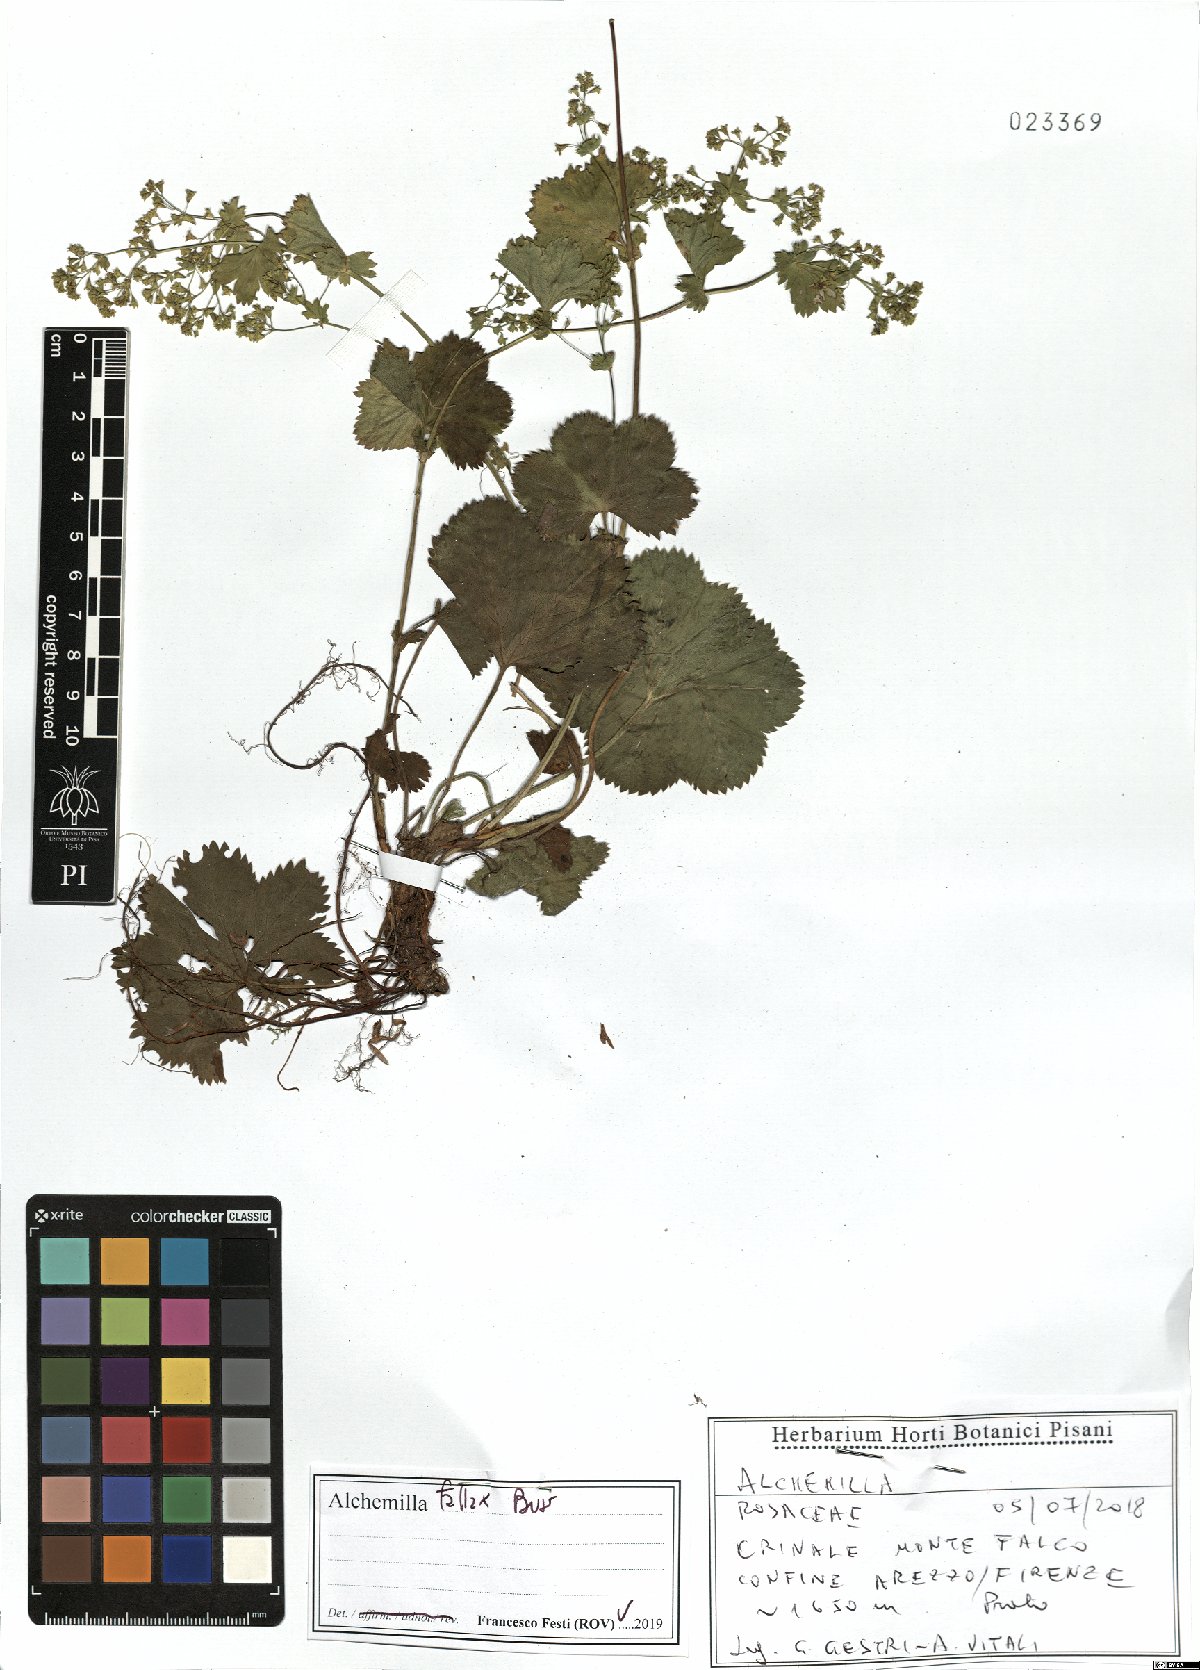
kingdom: Plantae
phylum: Tracheophyta
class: Magnoliopsida
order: Rosales
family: Rosaceae
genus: Alchemilla
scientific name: Alchemilla fallax
